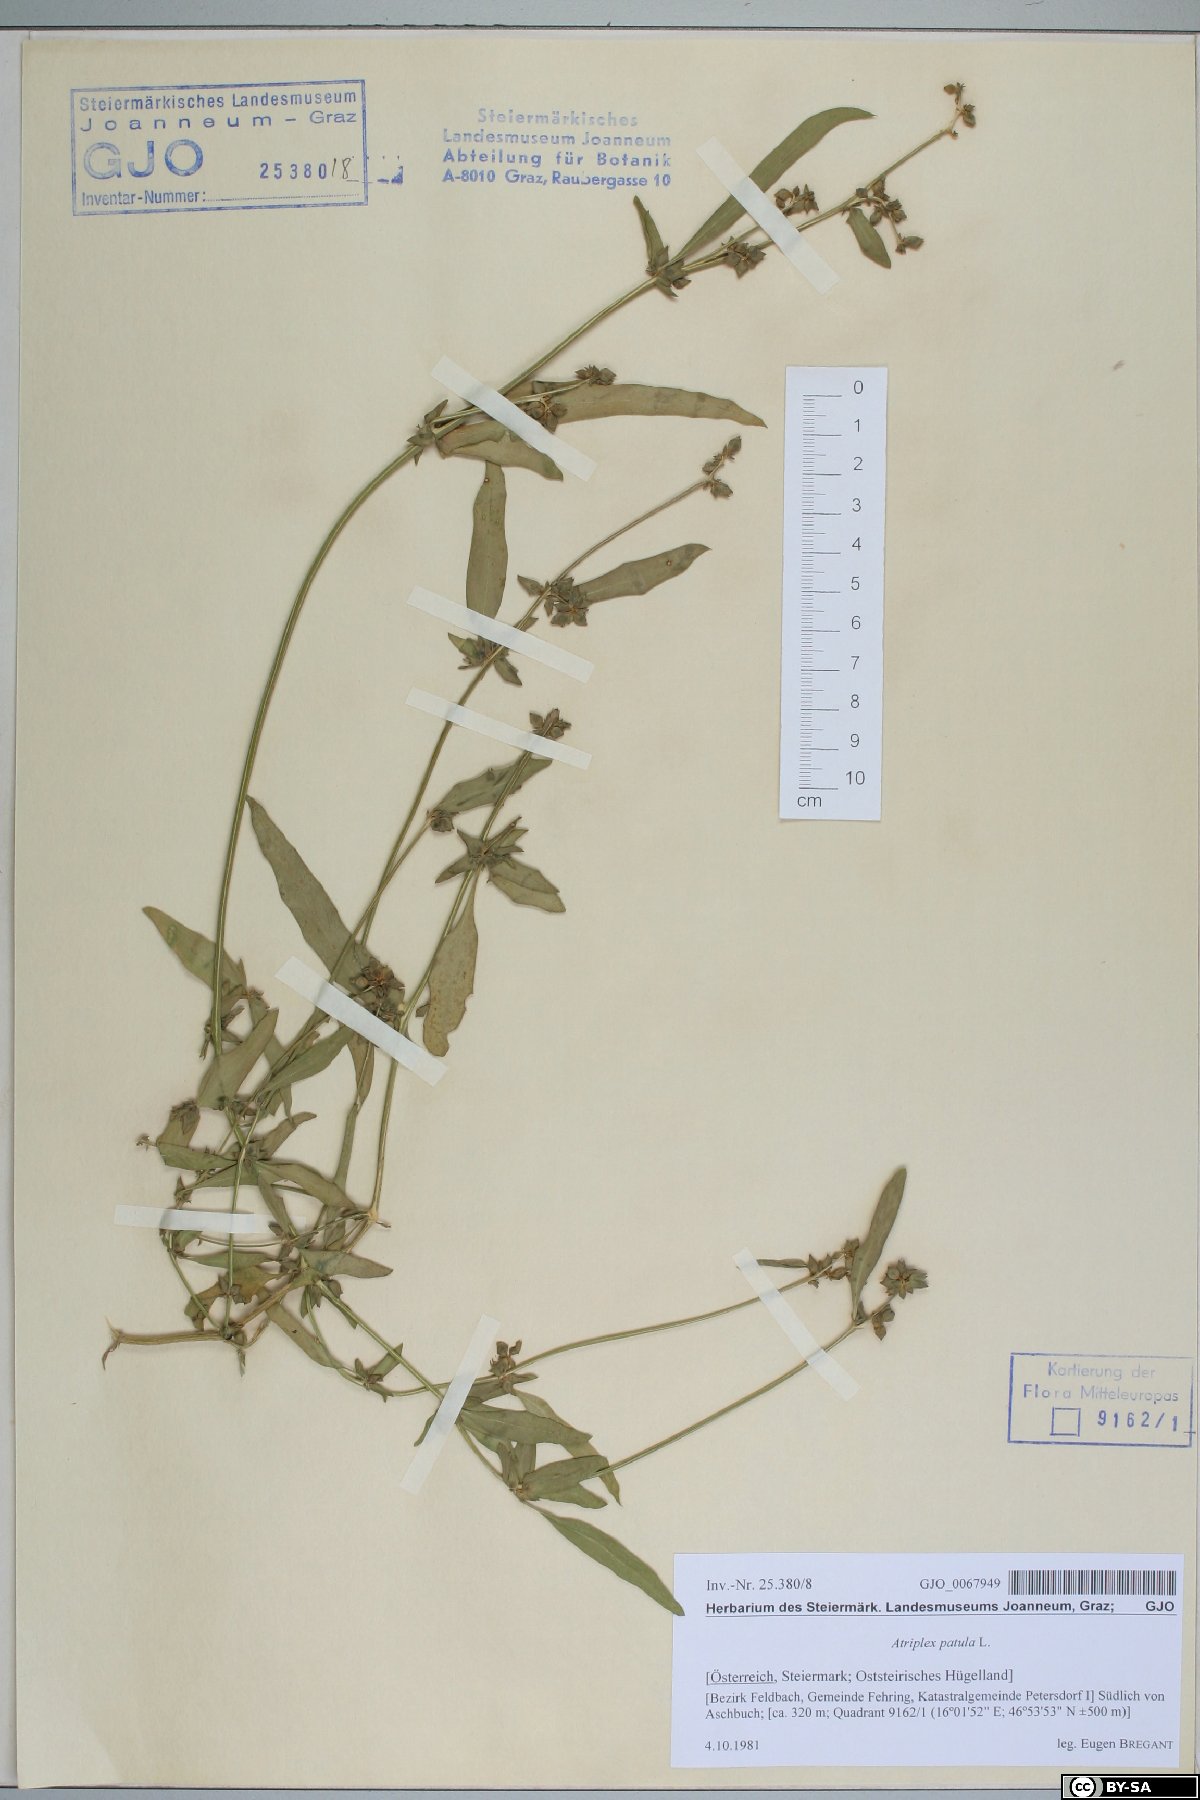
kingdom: Plantae
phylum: Tracheophyta
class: Magnoliopsida
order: Caryophyllales
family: Amaranthaceae
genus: Atriplex
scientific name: Atriplex patula
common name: Common orache
